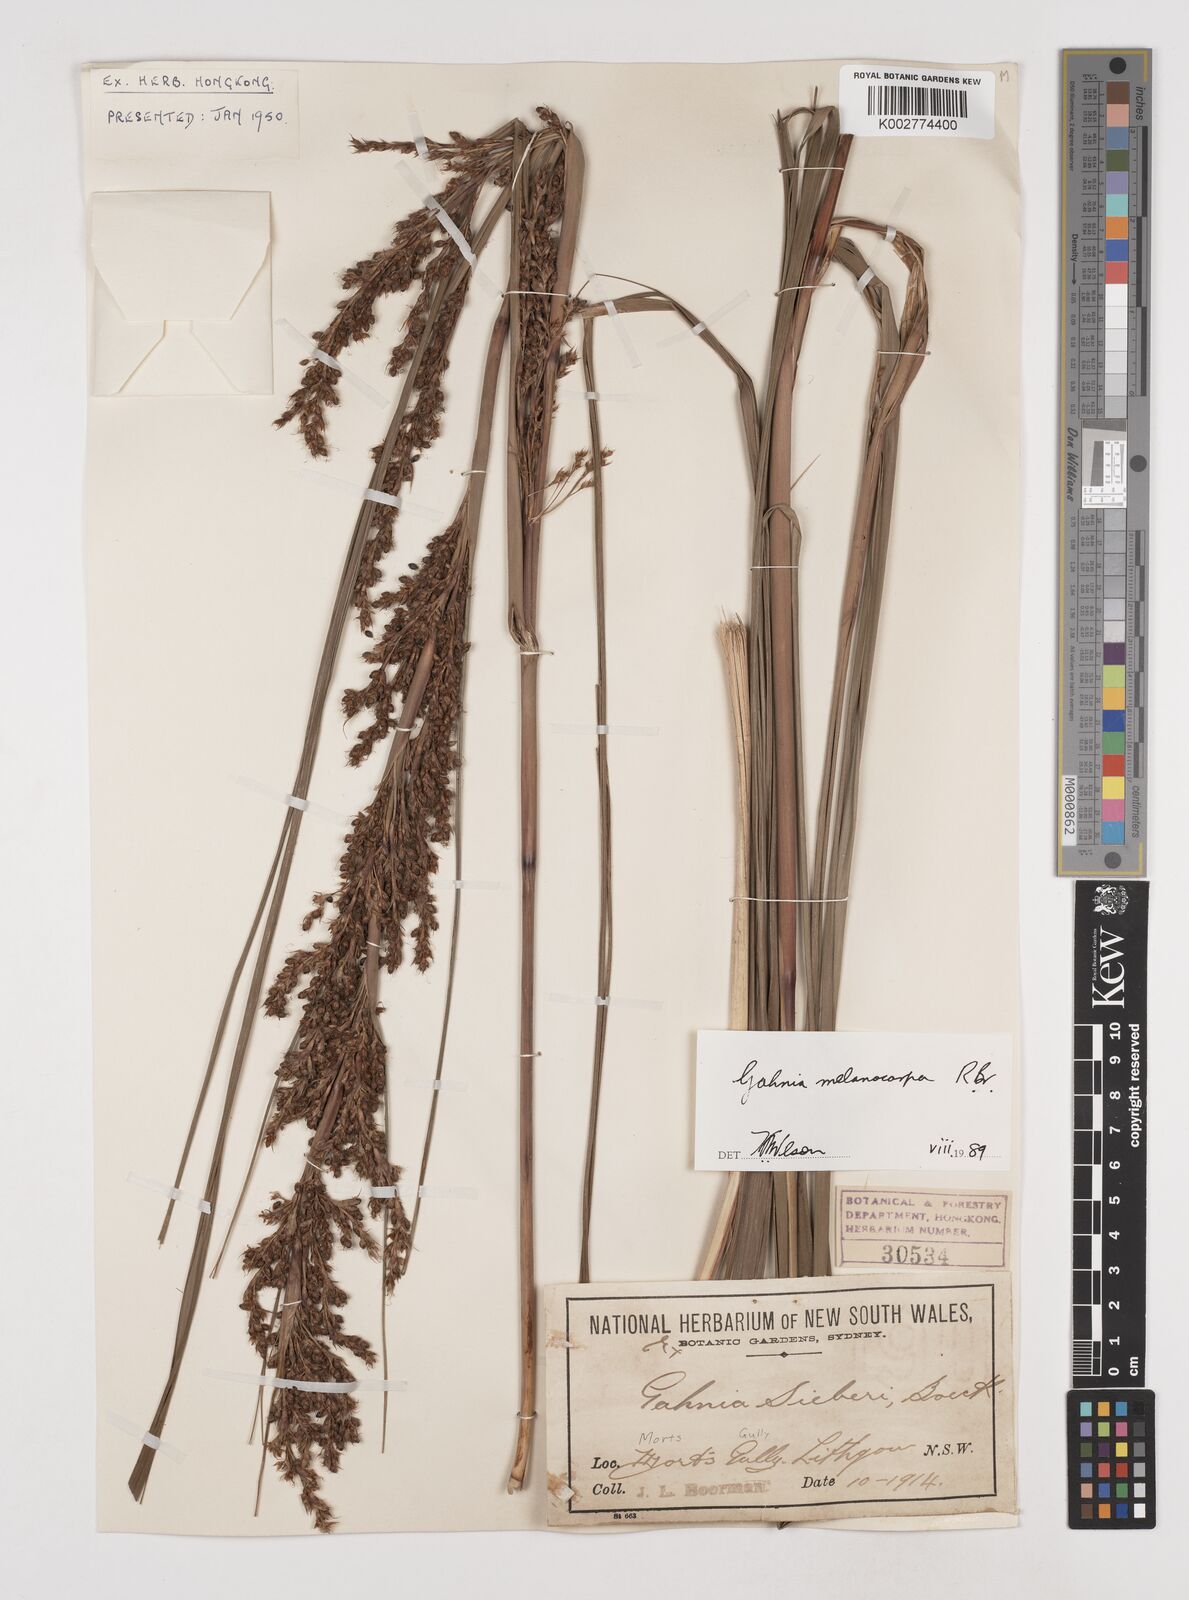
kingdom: Plantae
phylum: Tracheophyta
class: Liliopsida
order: Poales
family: Cyperaceae
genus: Gahnia
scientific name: Gahnia melanocarpa
